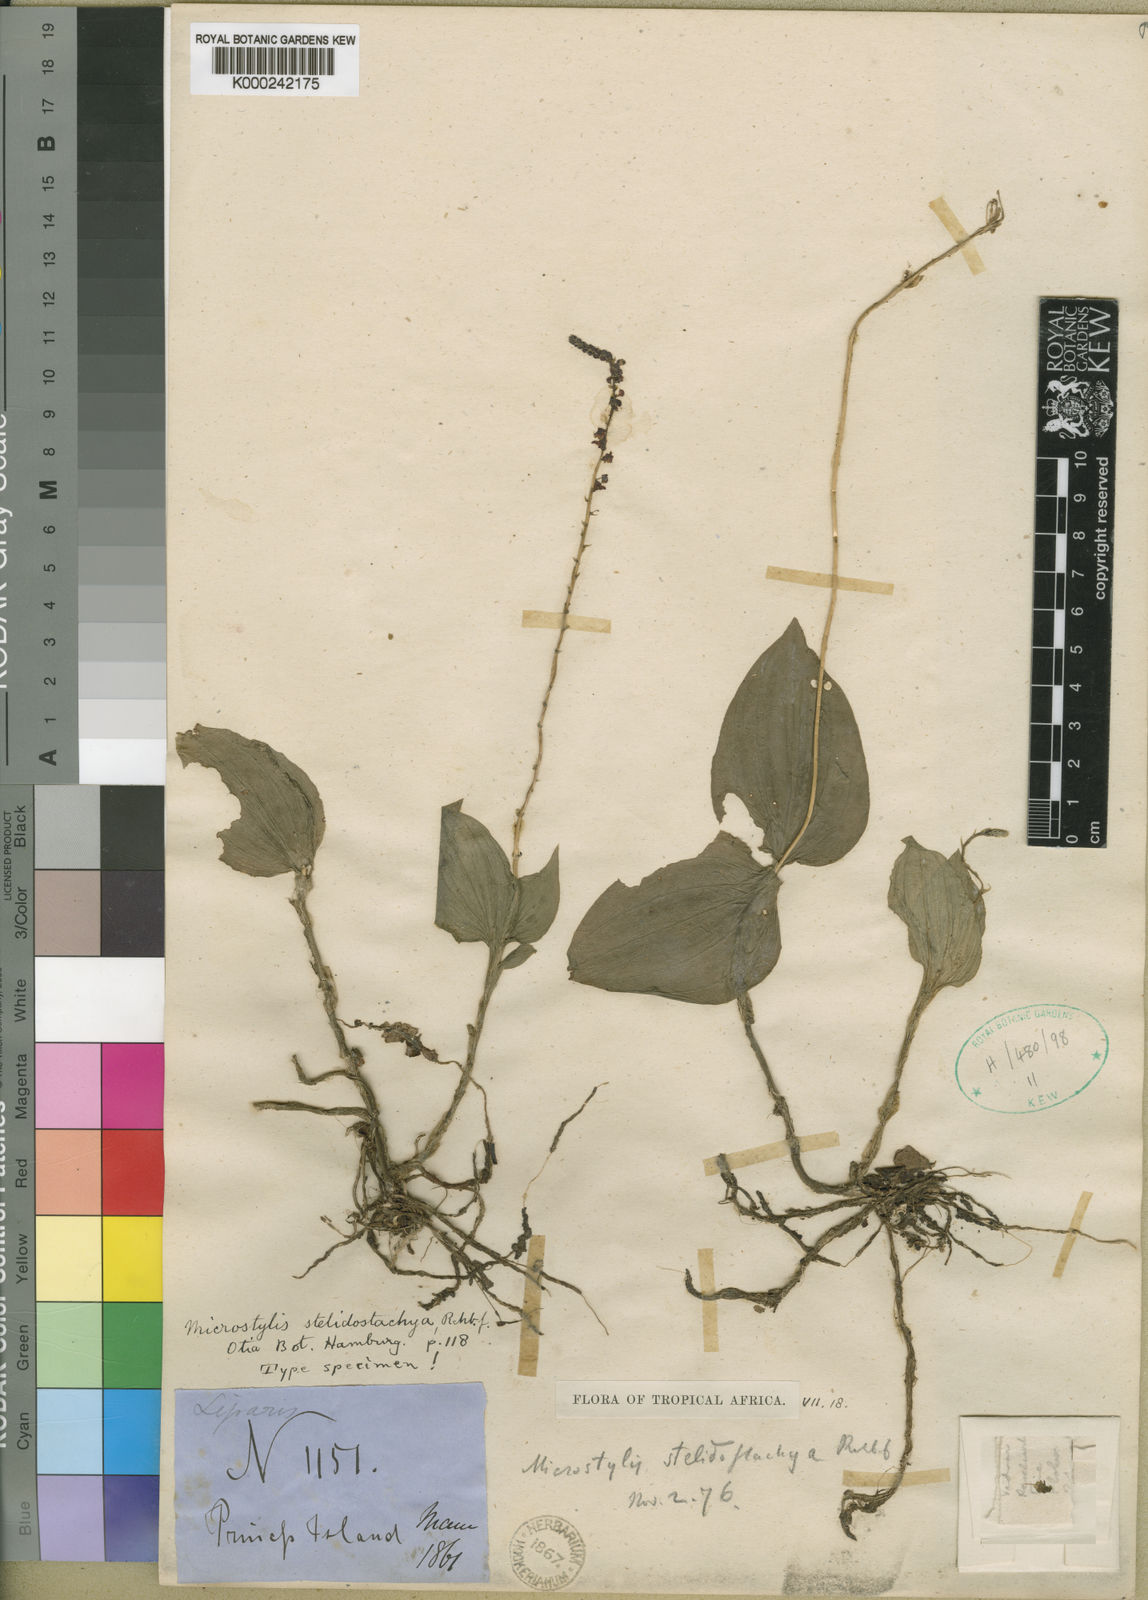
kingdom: Plantae
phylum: Tracheophyta
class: Liliopsida
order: Asparagales
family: Orchidaceae
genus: Orestias
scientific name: Orestias stelidostachya
